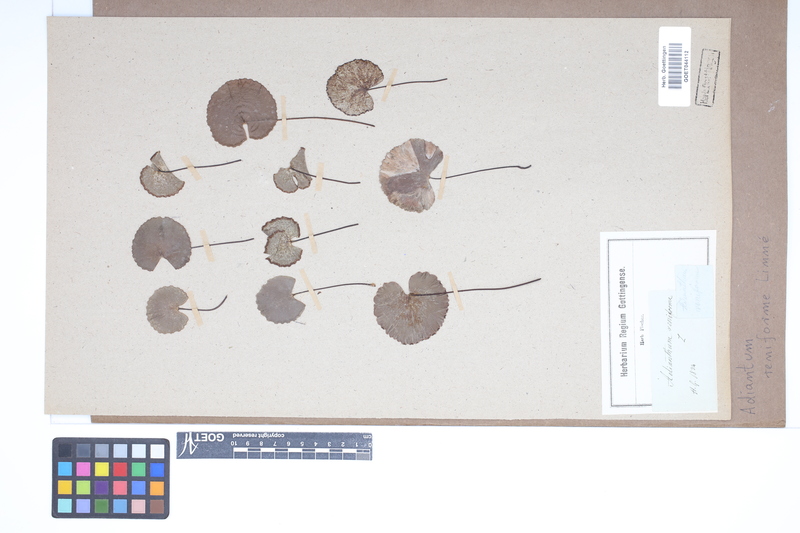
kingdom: Plantae
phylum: Tracheophyta
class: Polypodiopsida
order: Polypodiales
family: Pteridaceae
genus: Adiantum
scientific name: Adiantum reniforme
